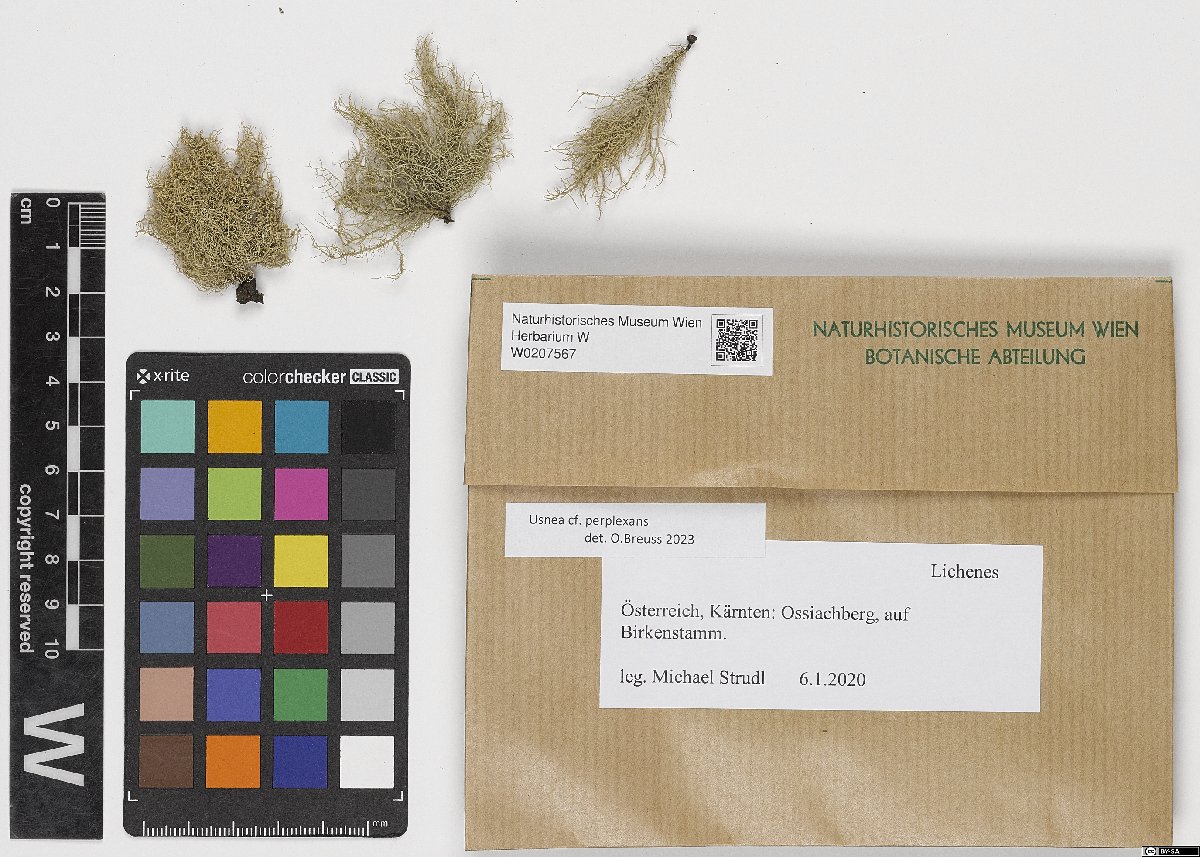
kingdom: Fungi
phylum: Ascomycota
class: Lecanoromycetes
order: Lecanorales
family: Parmeliaceae
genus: Usnea
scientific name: Usnea perplexans
